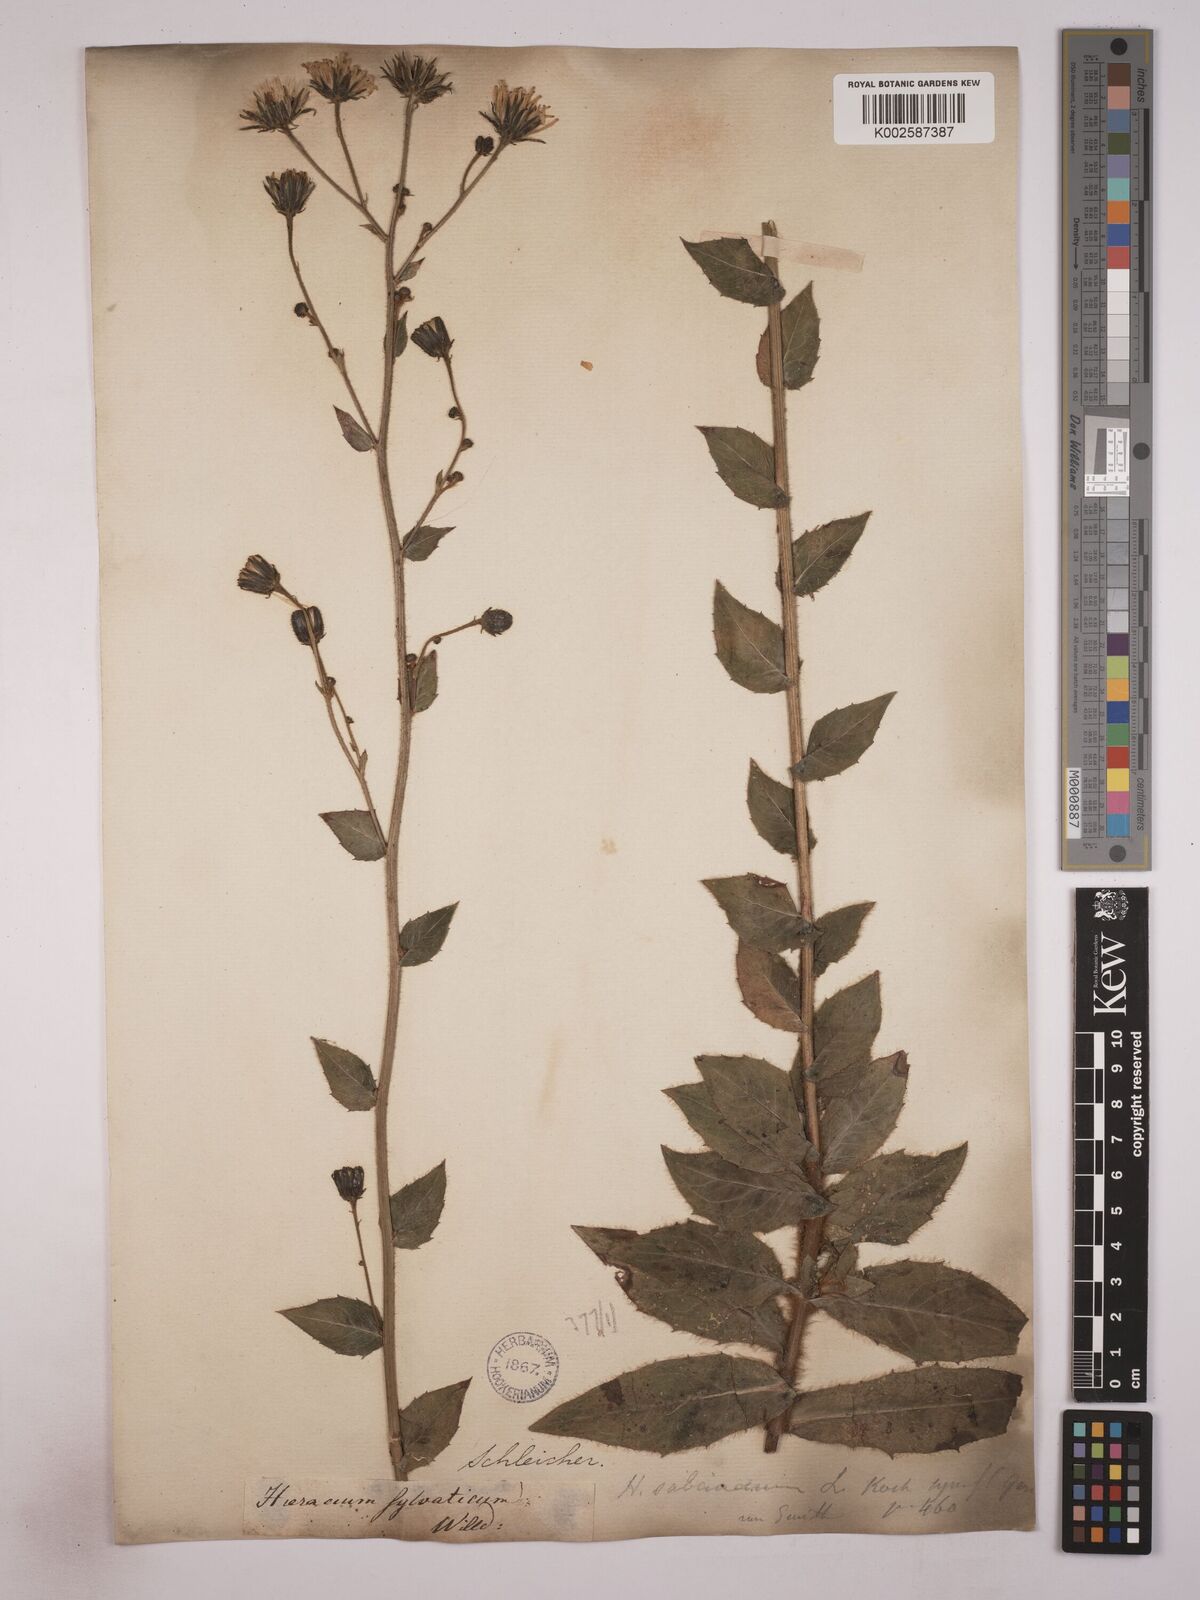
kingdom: Plantae
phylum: Tracheophyta
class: Magnoliopsida
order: Asterales
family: Asteraceae
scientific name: Asteraceae
